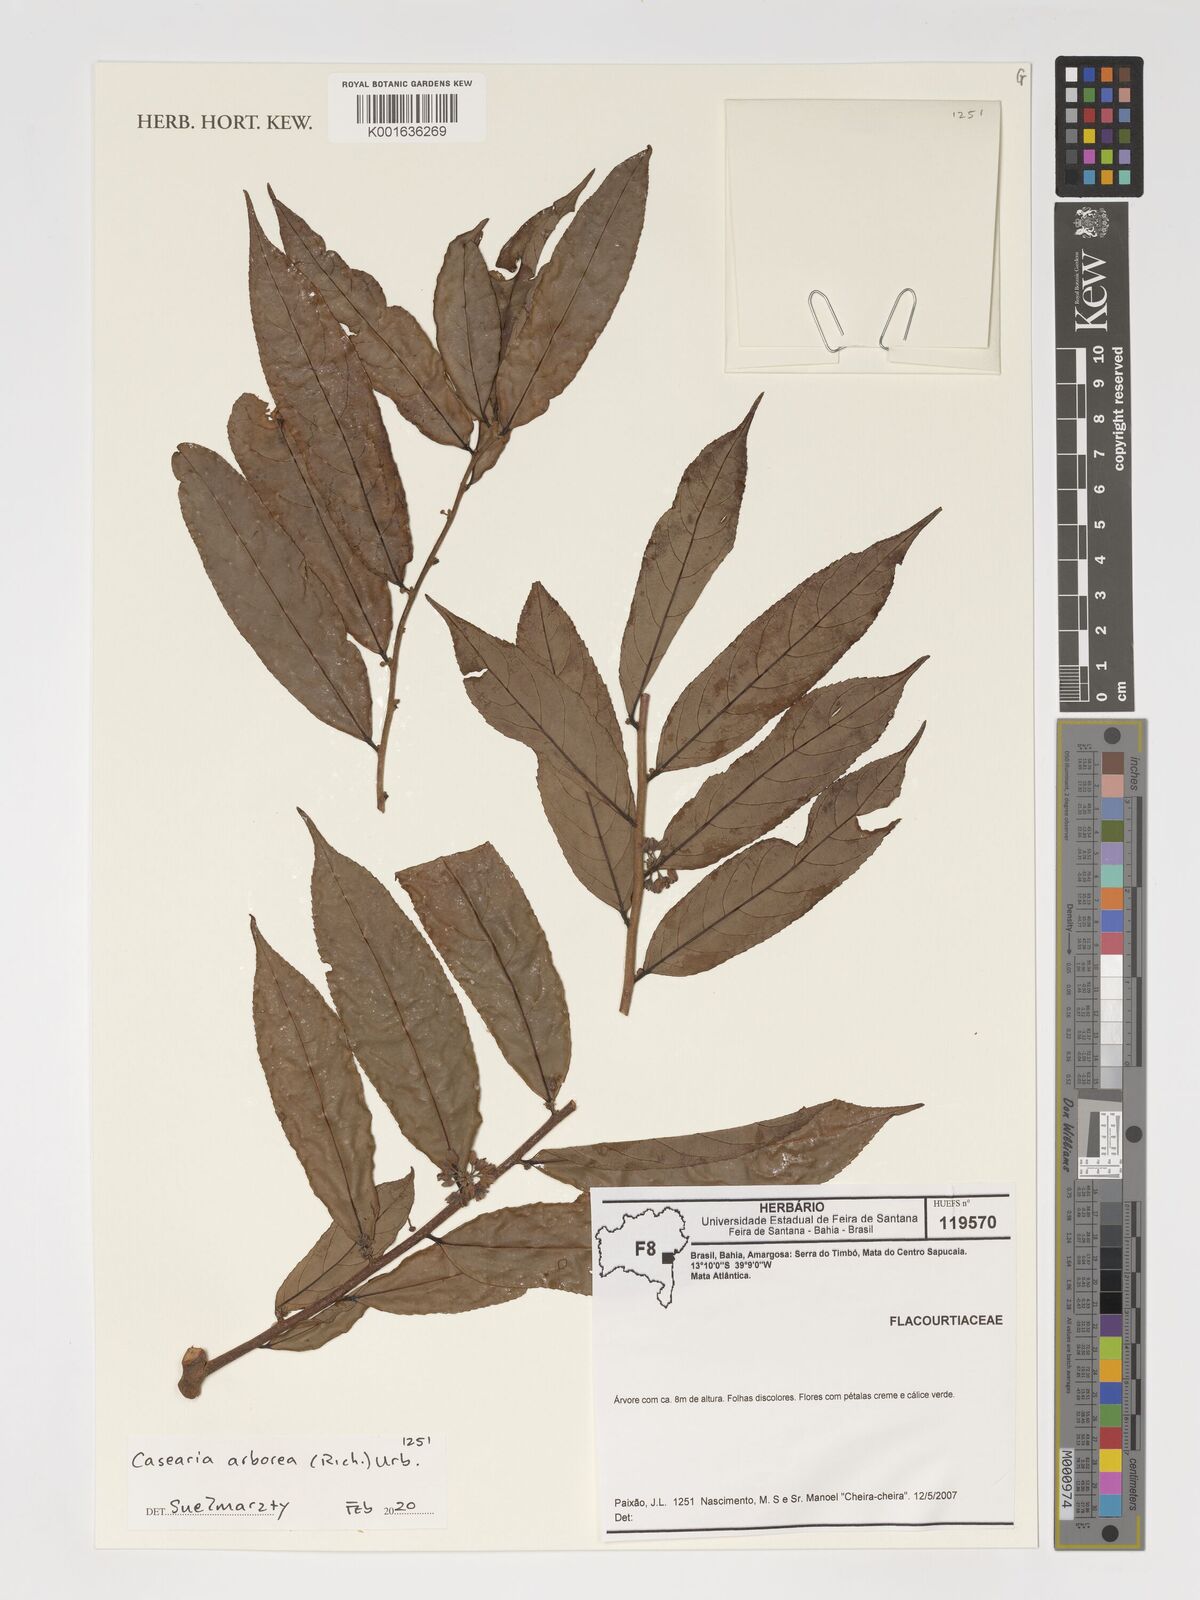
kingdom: Plantae
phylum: Tracheophyta
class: Magnoliopsida
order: Malpighiales
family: Salicaceae
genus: Casearia
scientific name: Casearia arborea
